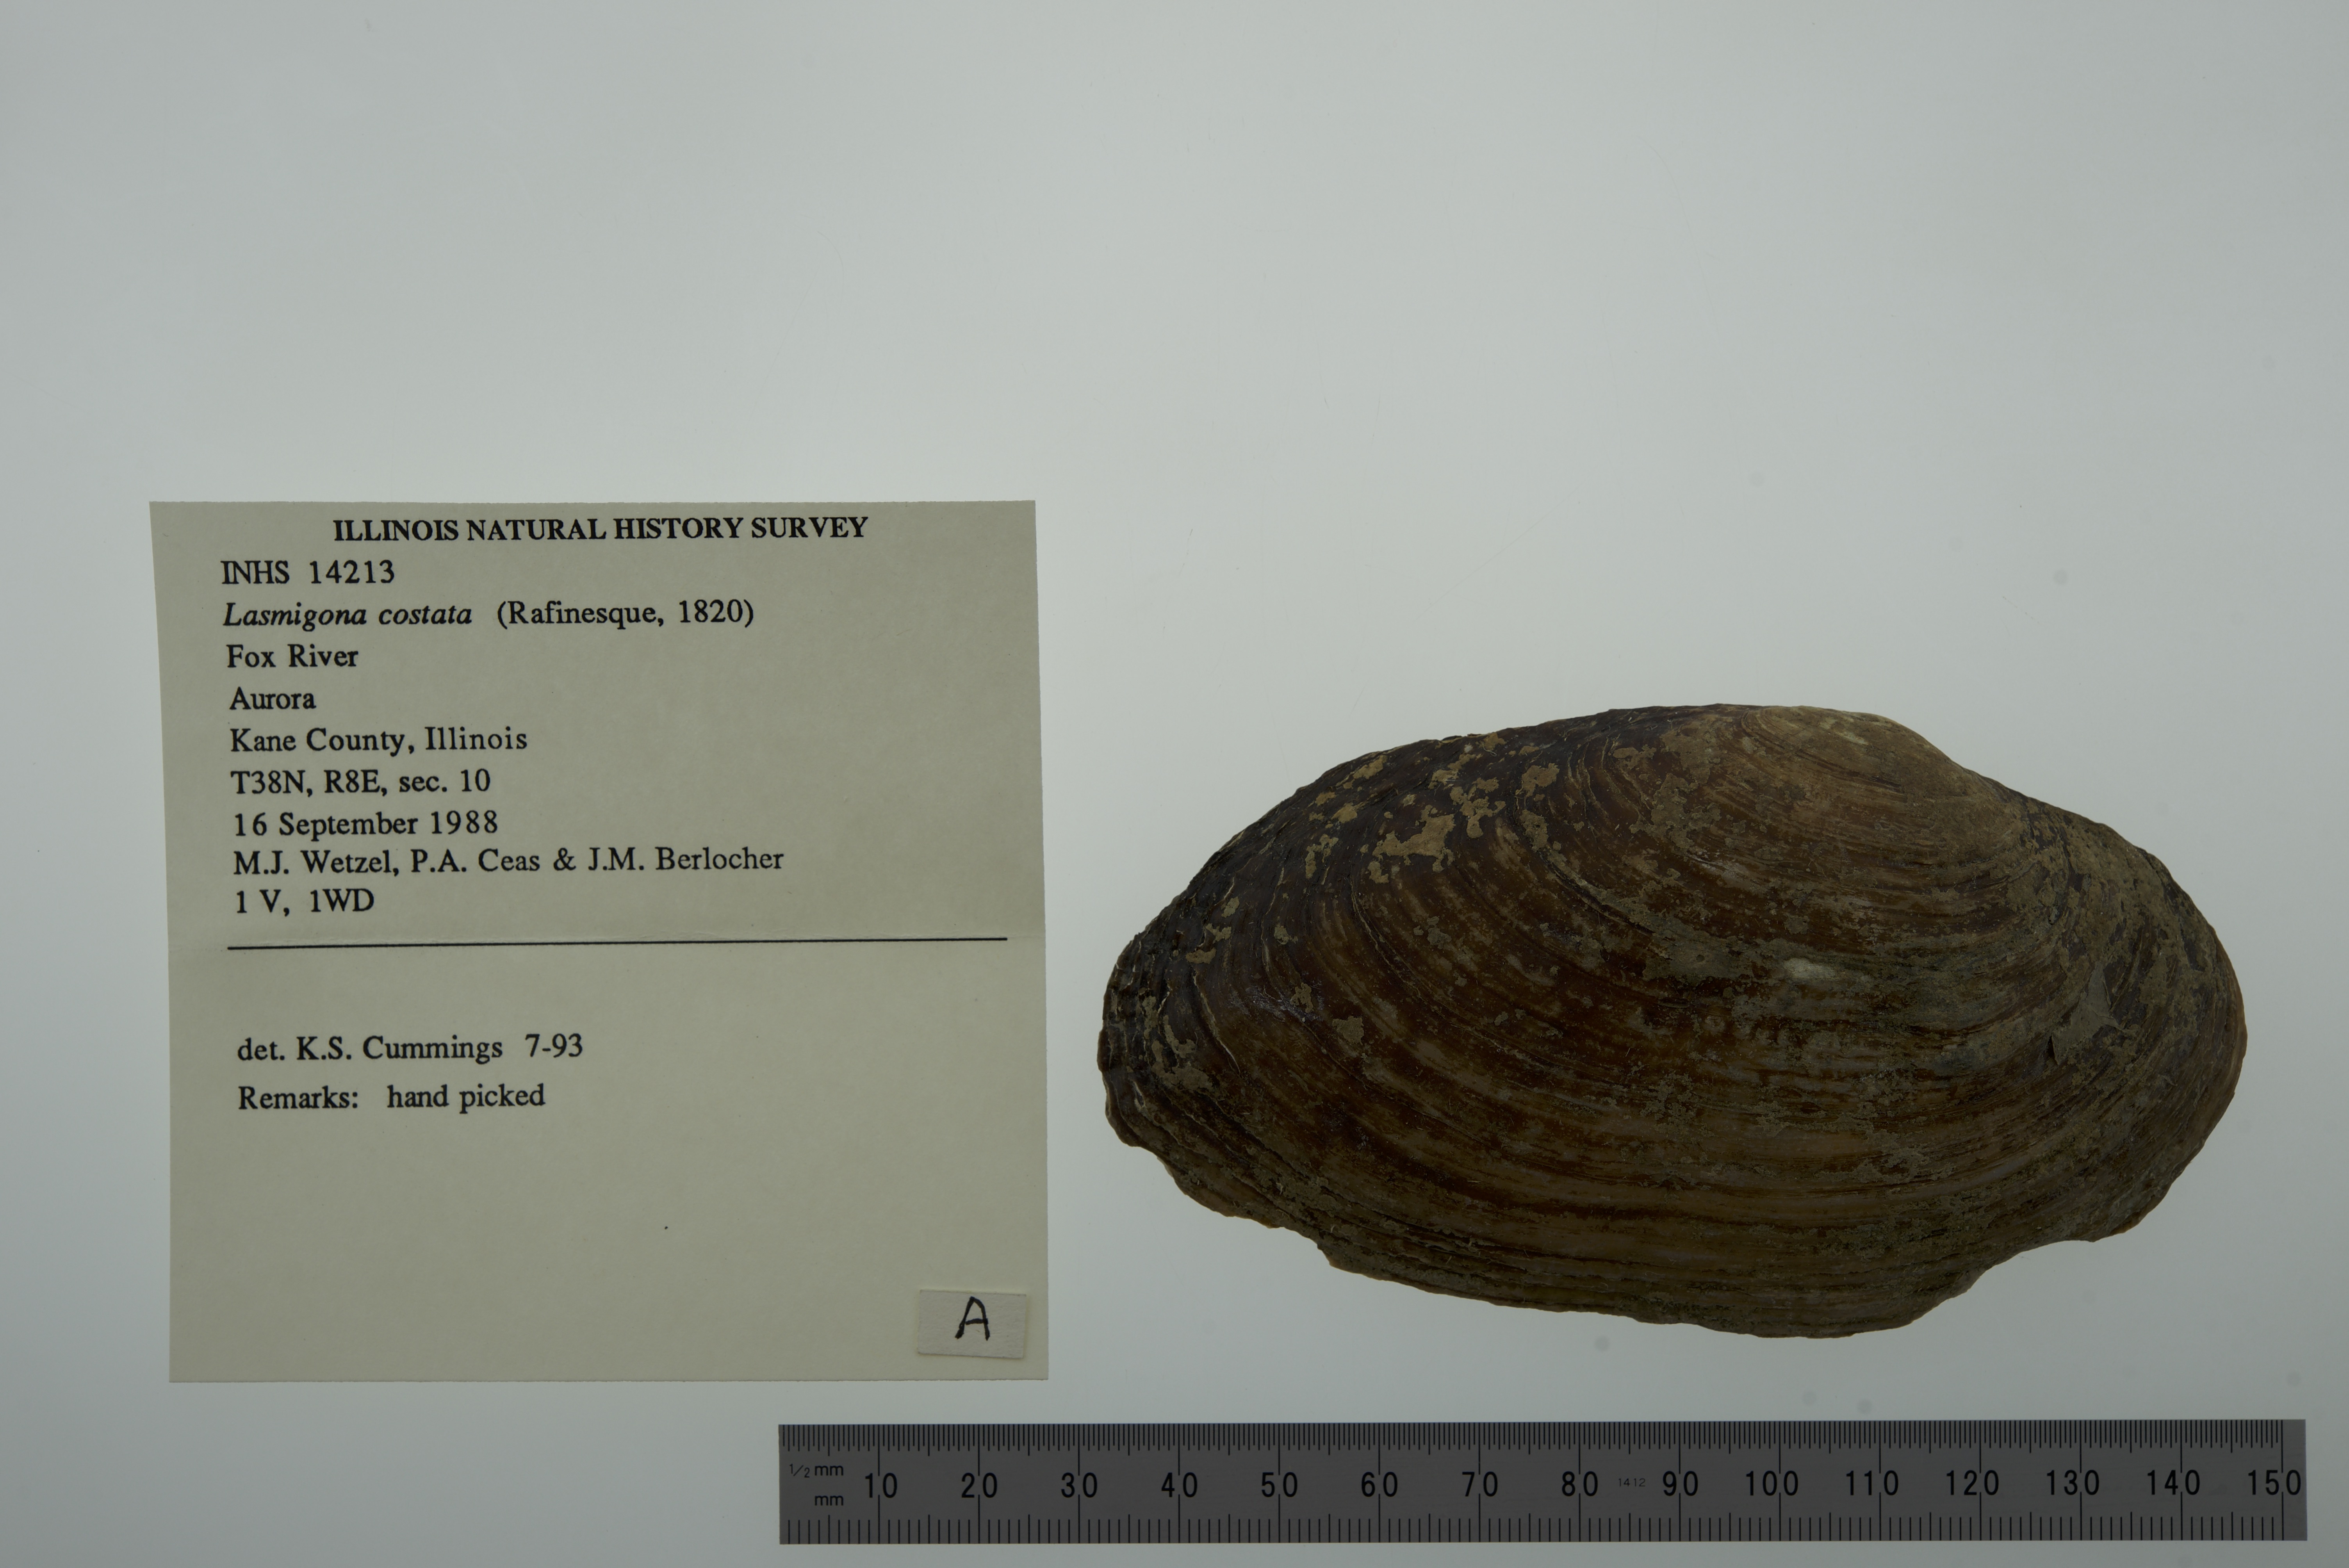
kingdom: Animalia
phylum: Mollusca
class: Bivalvia
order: Unionida
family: Unionidae
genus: Lasmigona
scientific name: Lasmigona costata
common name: Flutedshell
